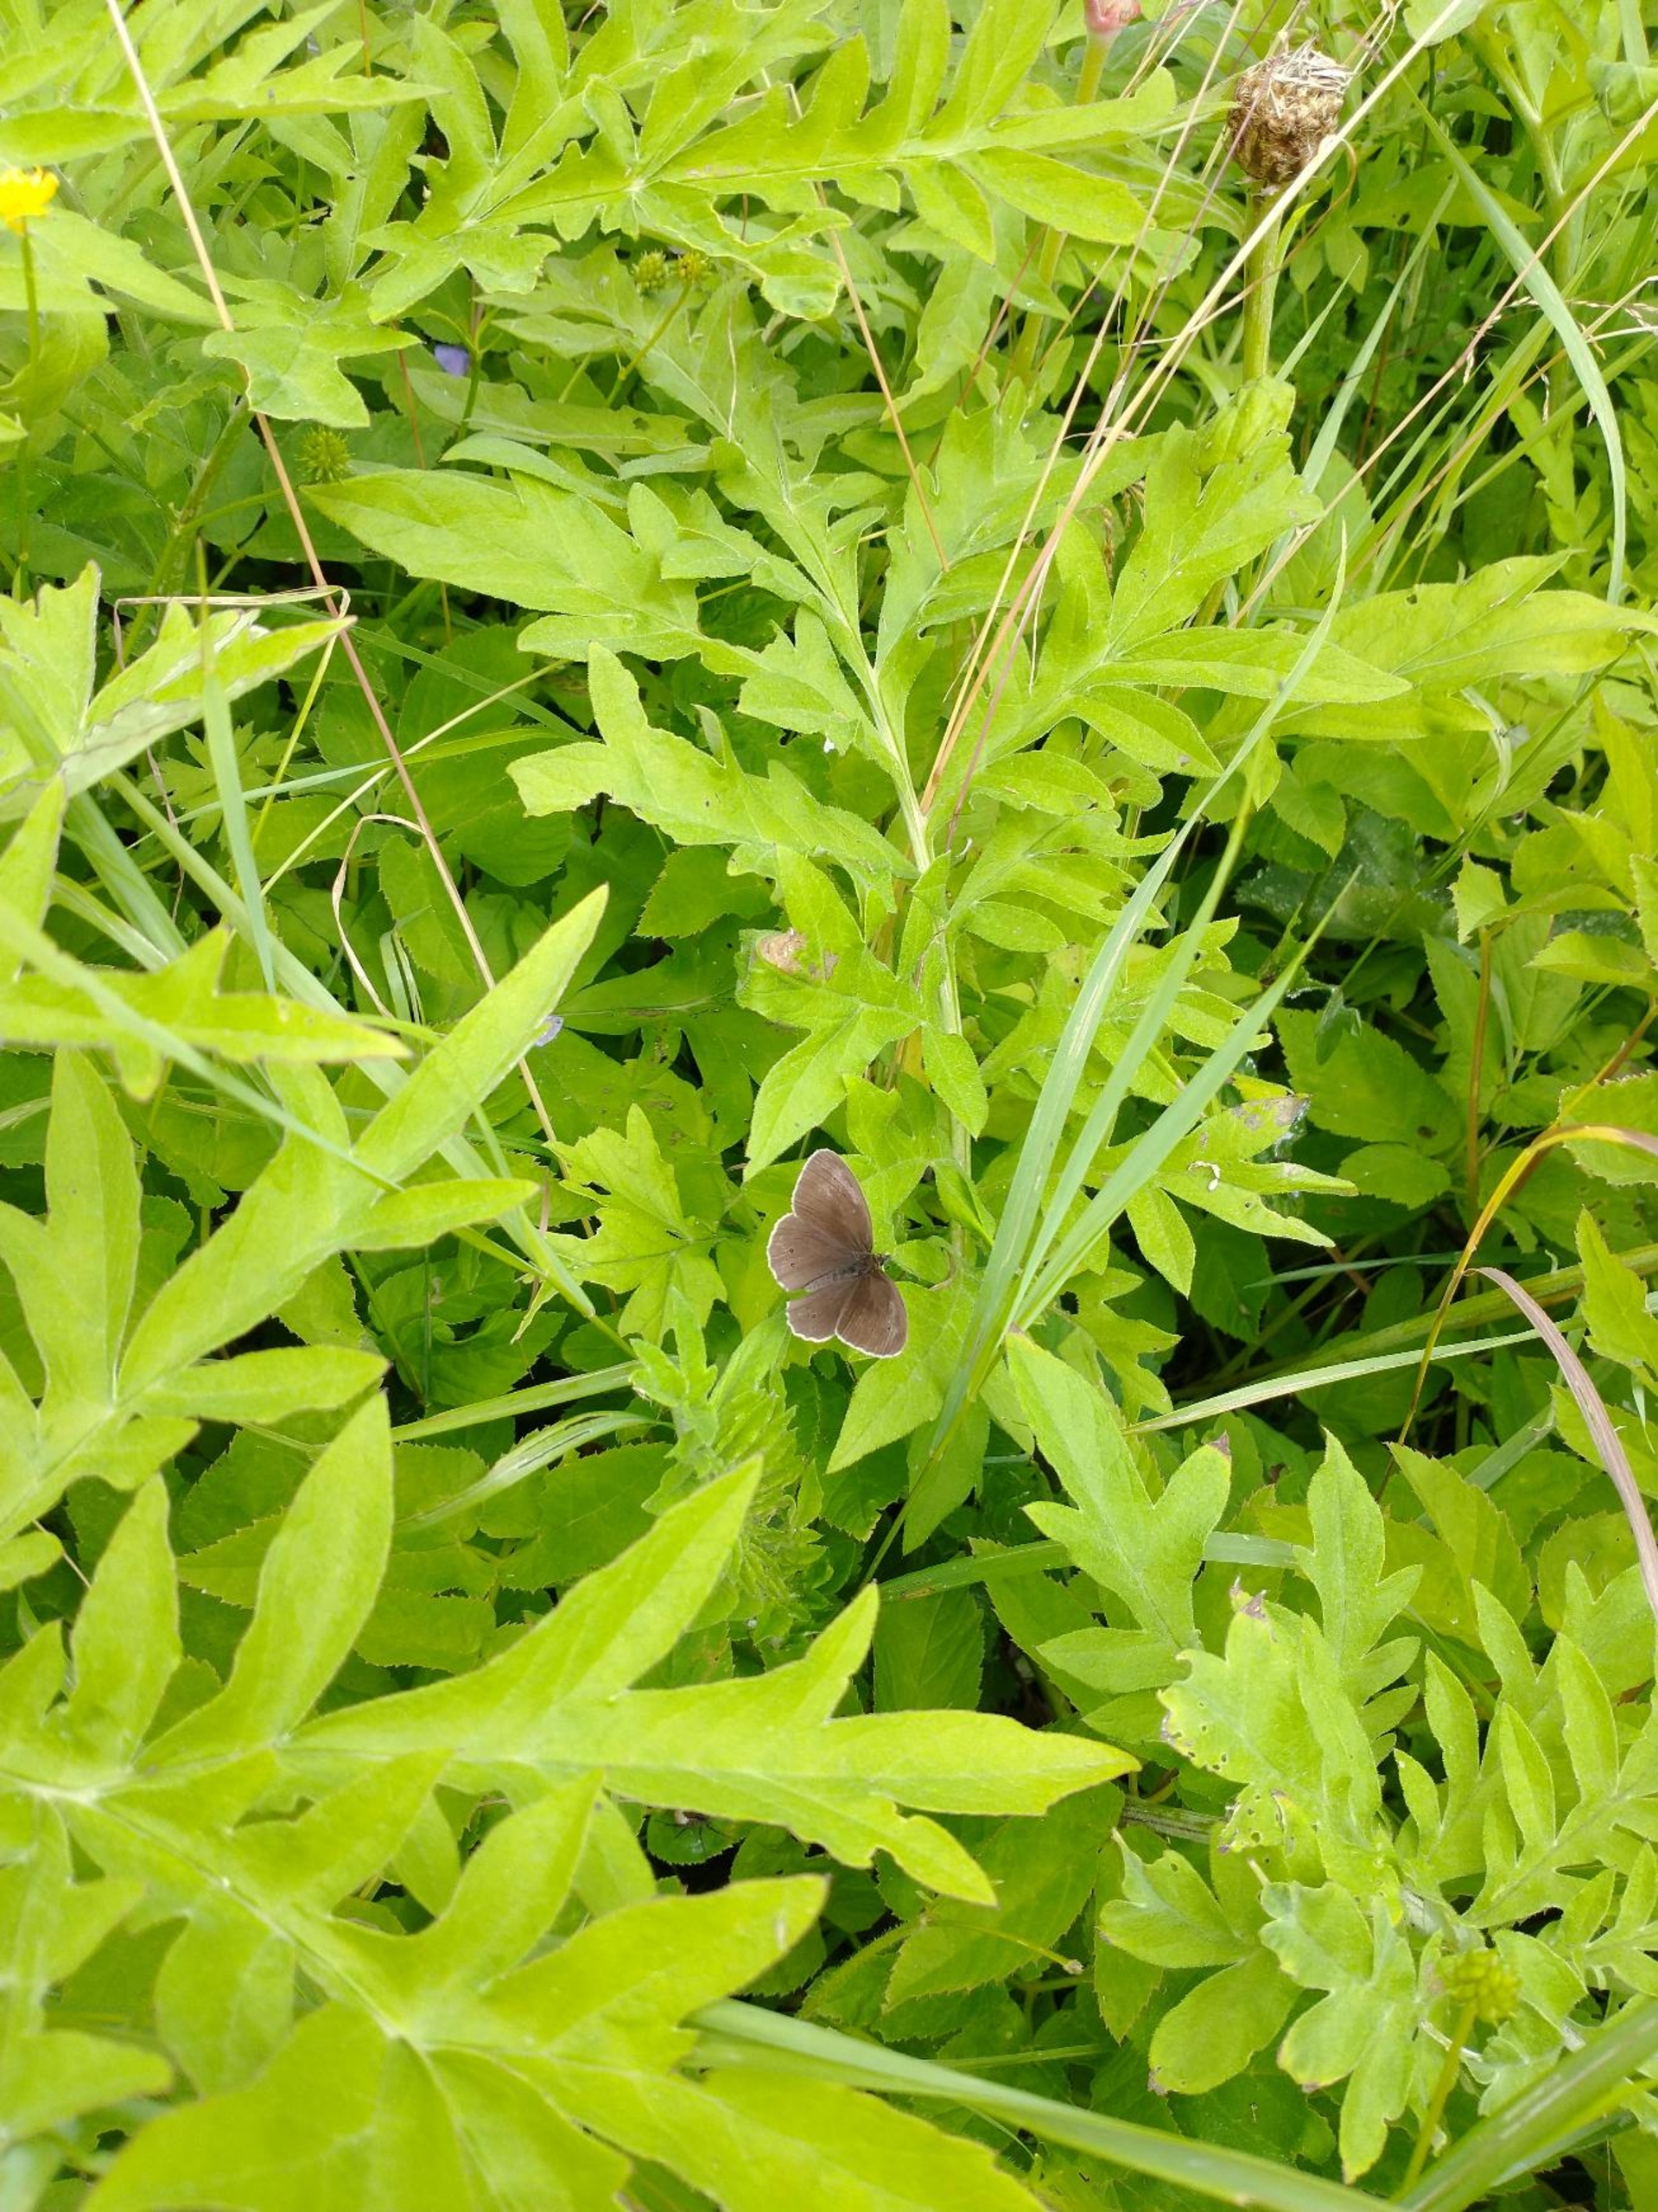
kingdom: Animalia
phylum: Arthropoda
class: Insecta
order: Lepidoptera
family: Nymphalidae
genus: Aphantopus
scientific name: Aphantopus hyperantus
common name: Engrandøje
